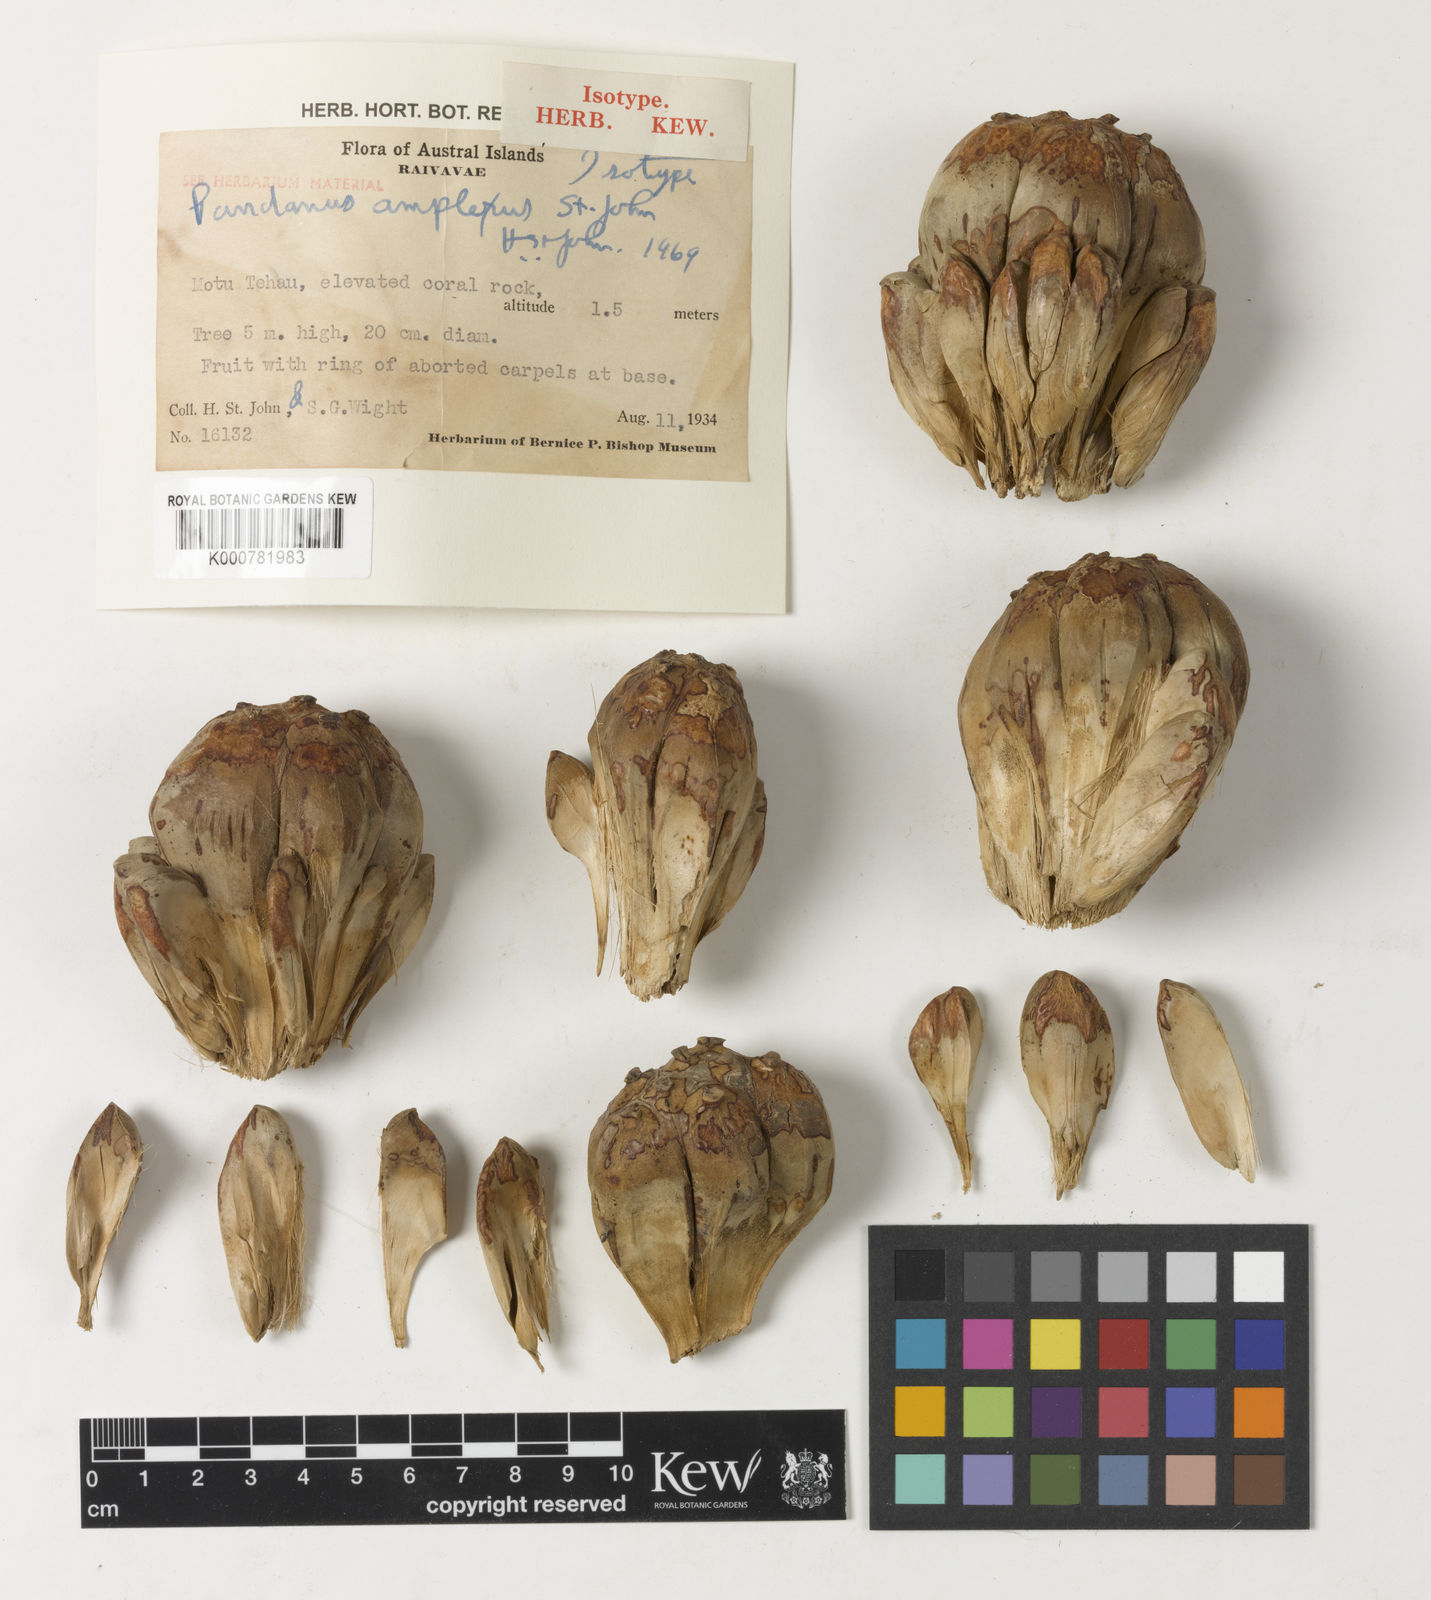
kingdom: Plantae
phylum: Tracheophyta
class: Liliopsida
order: Pandanales
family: Pandanaceae
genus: Pandanus
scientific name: Pandanus tectorius
